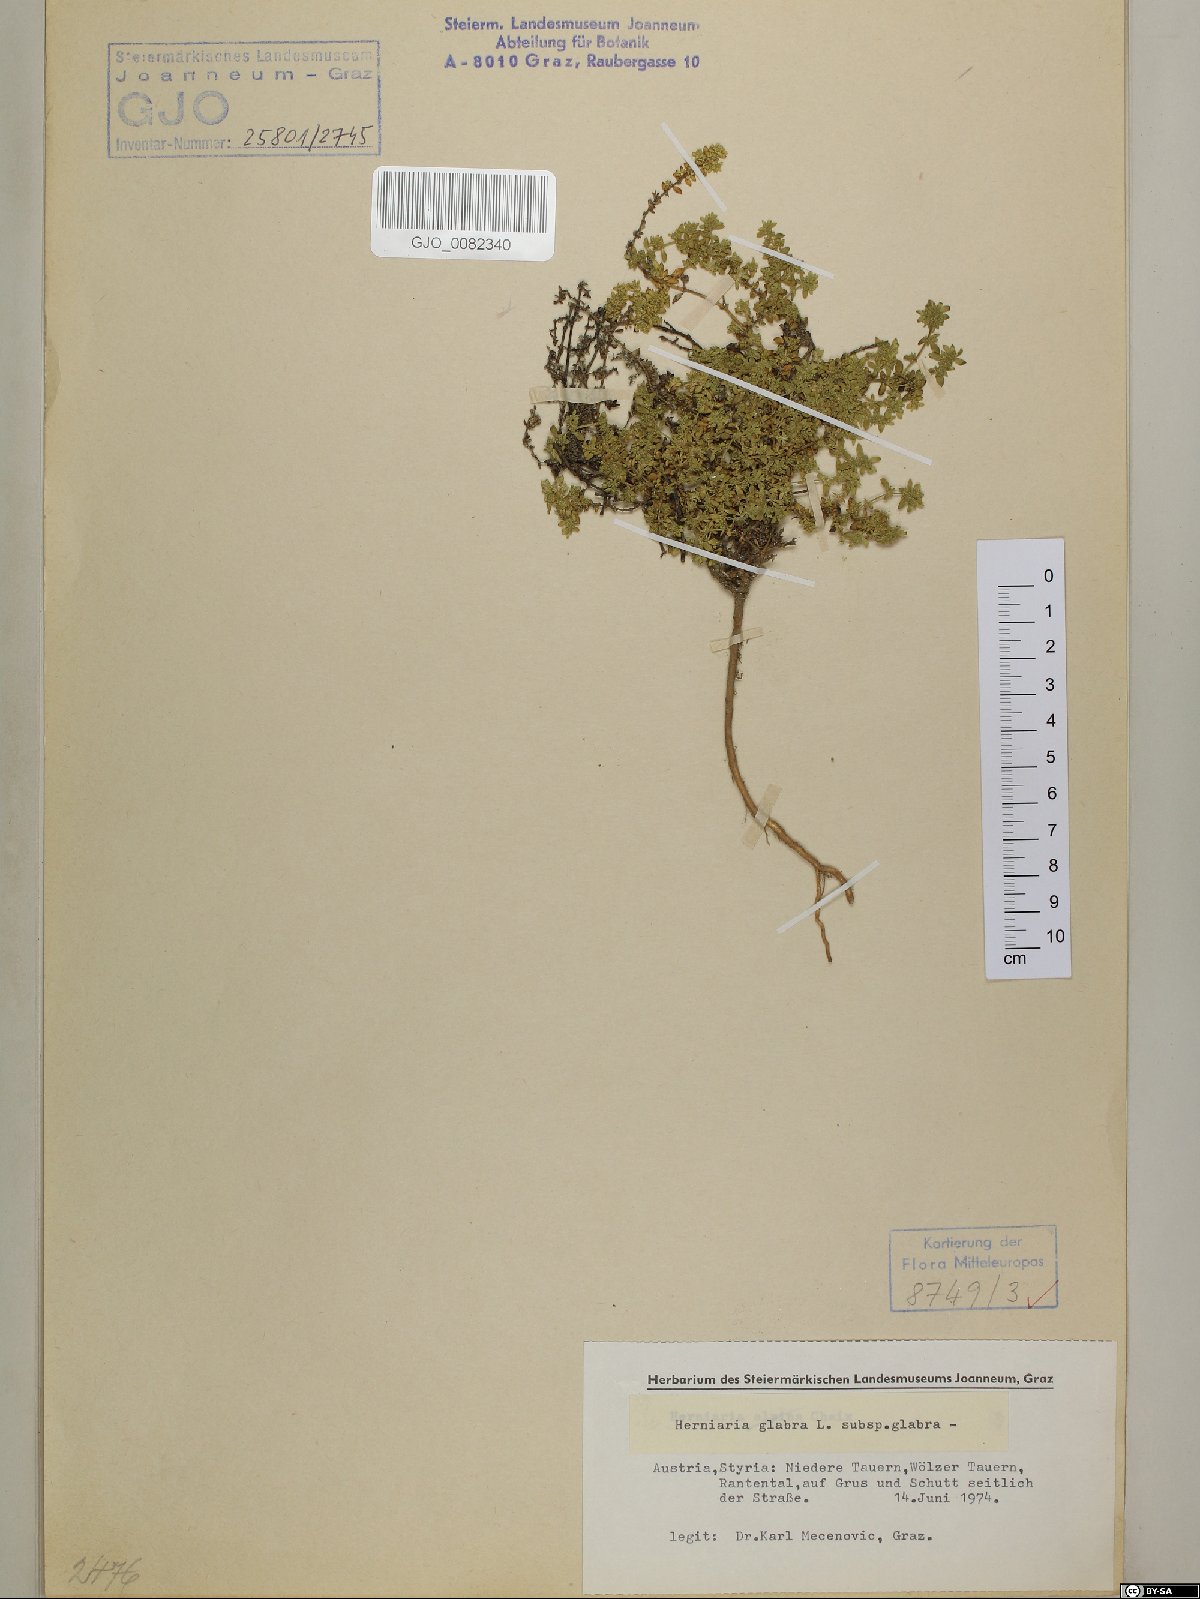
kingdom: Plantae
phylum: Tracheophyta
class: Magnoliopsida
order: Caryophyllales
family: Caryophyllaceae
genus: Herniaria
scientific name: Herniaria glabra
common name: Smooth rupturewort
